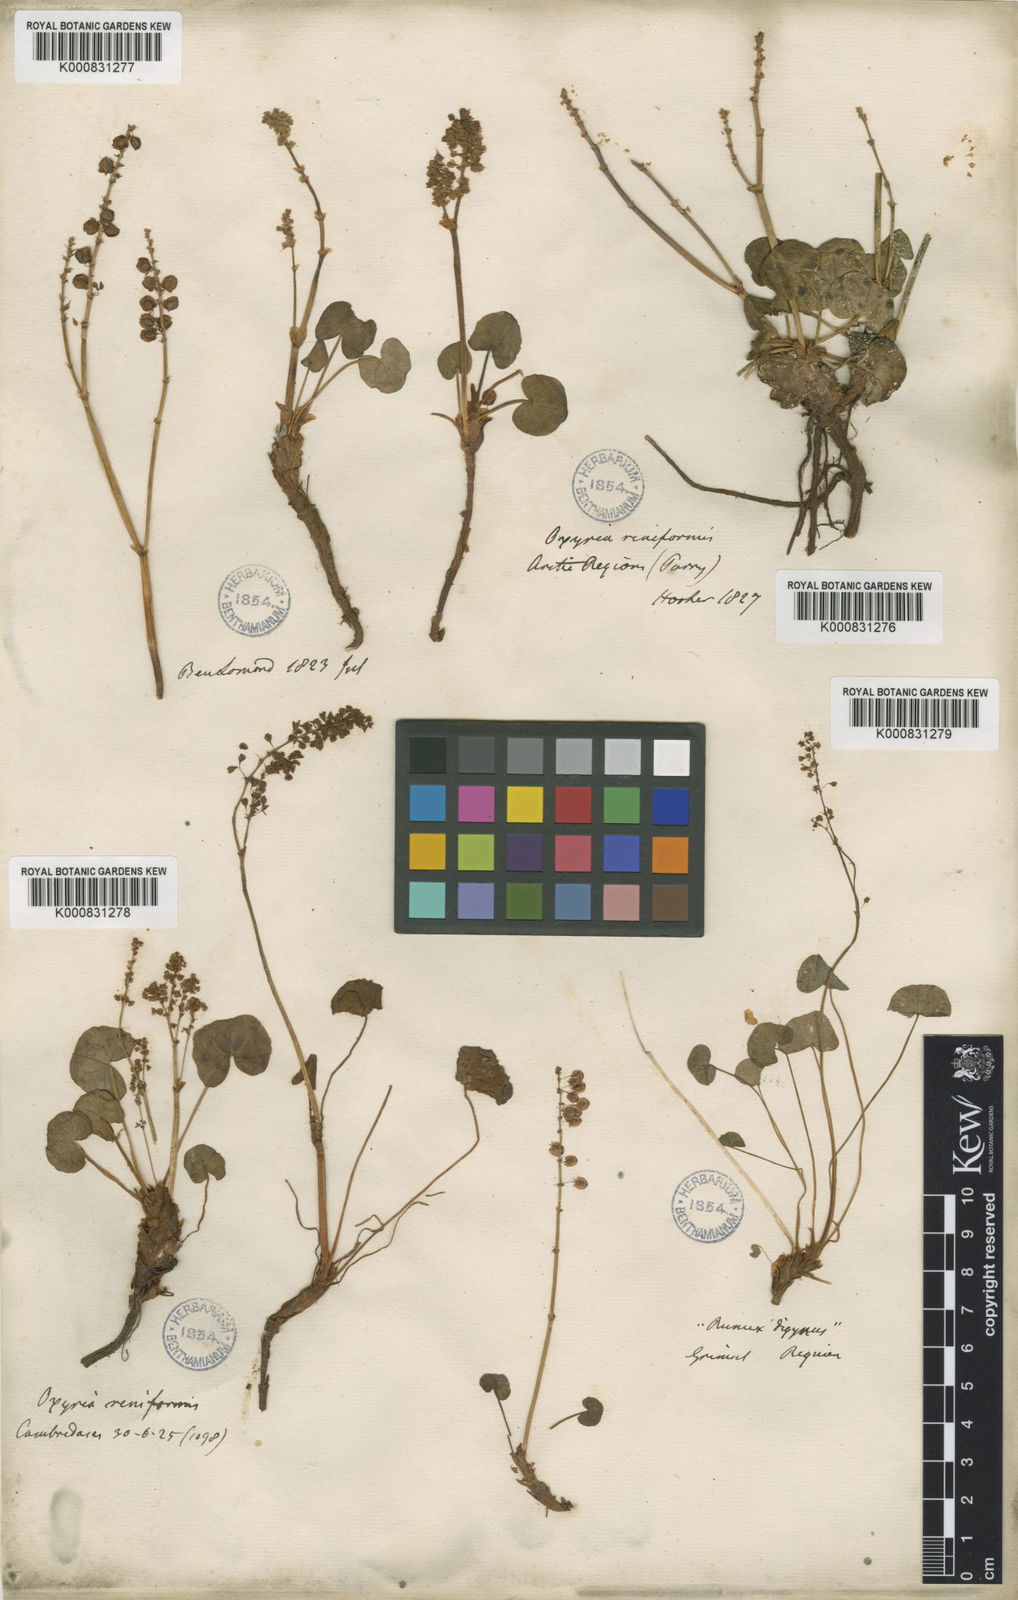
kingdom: Plantae
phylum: Tracheophyta
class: Magnoliopsida
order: Caryophyllales
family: Polygonaceae
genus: Oxyria
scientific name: Oxyria digyna
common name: Alpine mountain-sorrel
